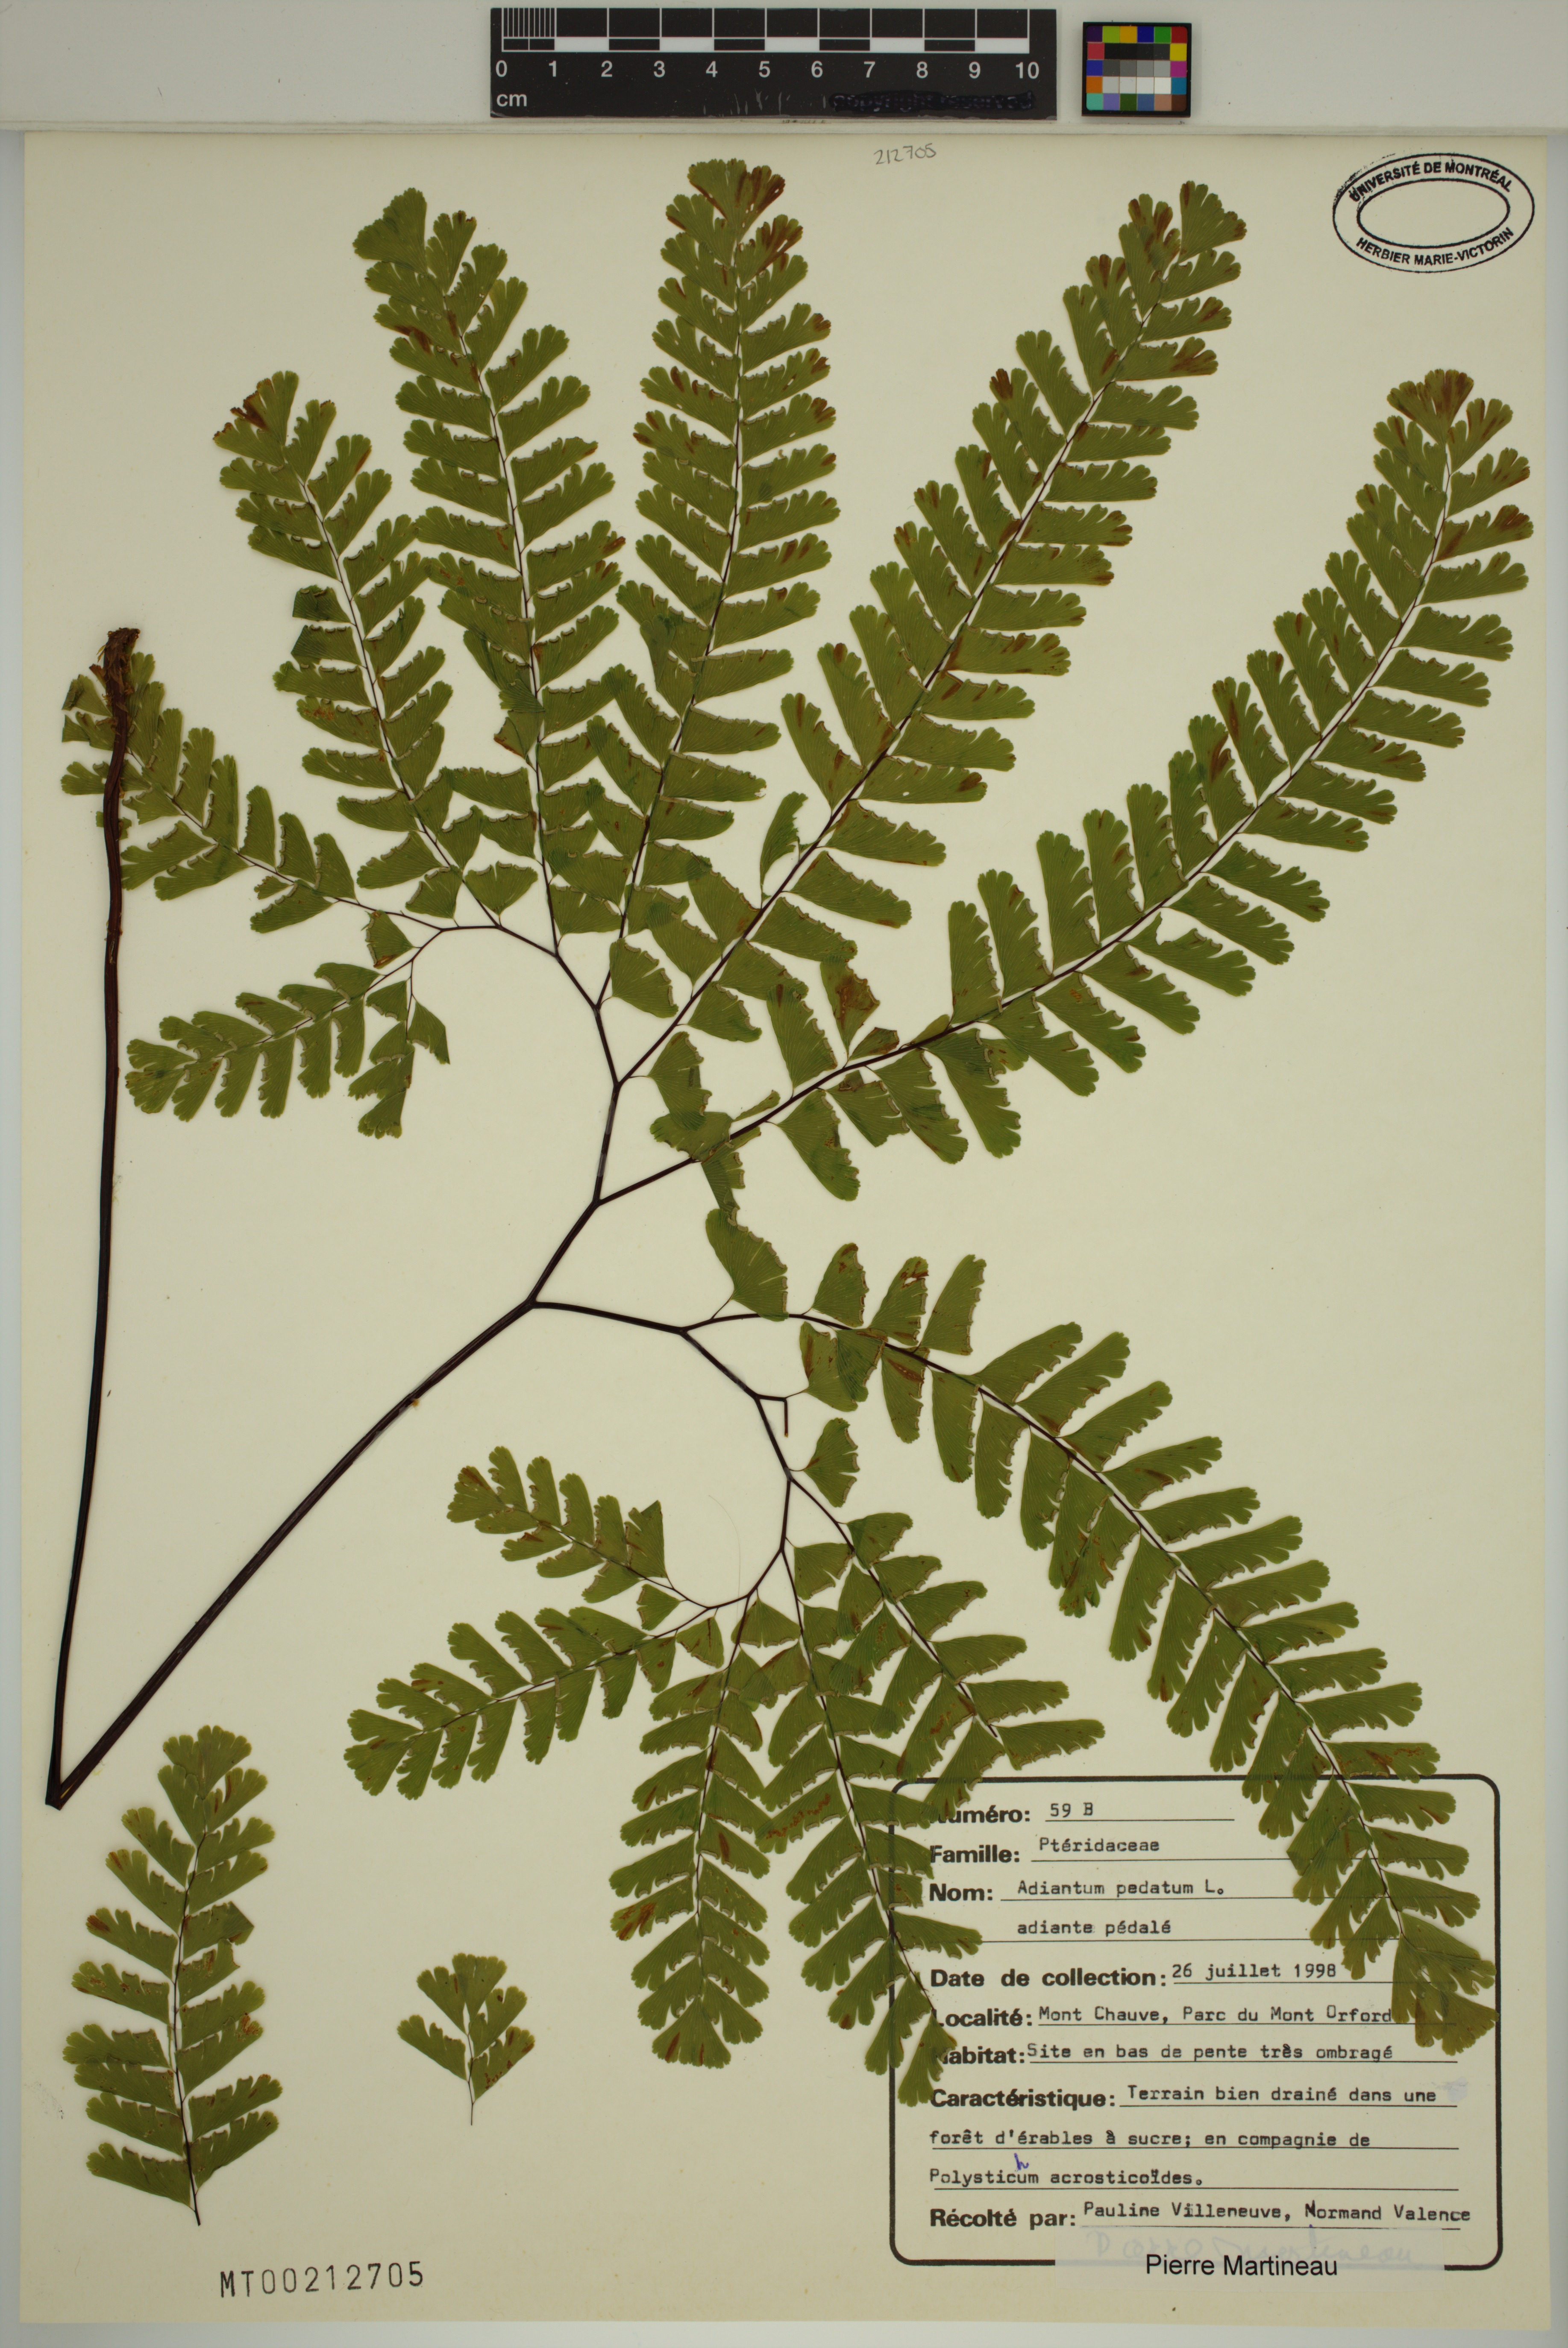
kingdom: Plantae
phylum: Tracheophyta
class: Polypodiopsida
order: Polypodiales
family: Pteridaceae
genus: Adiantum
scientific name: Adiantum pedatum
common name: Five-finger fern
